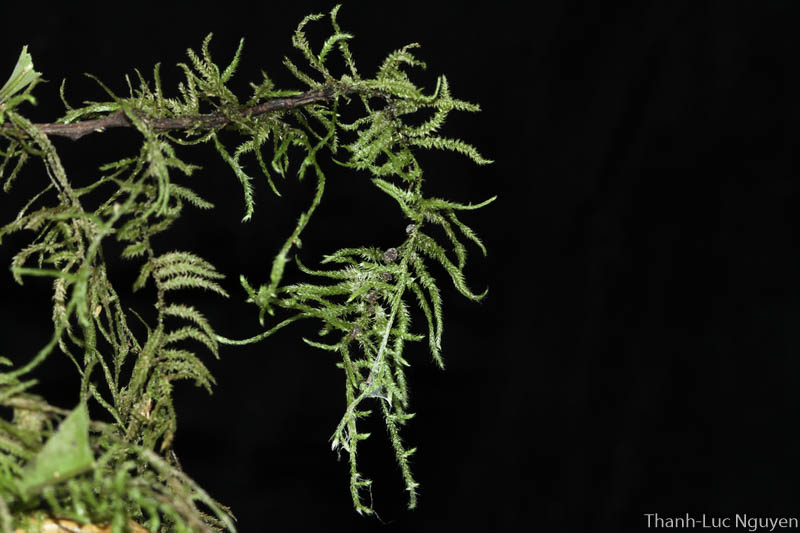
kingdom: Plantae
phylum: Bryophyta
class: Bryopsida
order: Hypnales
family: Meteoriaceae
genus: Aerobryidium
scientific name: Aerobryidium laosiense
